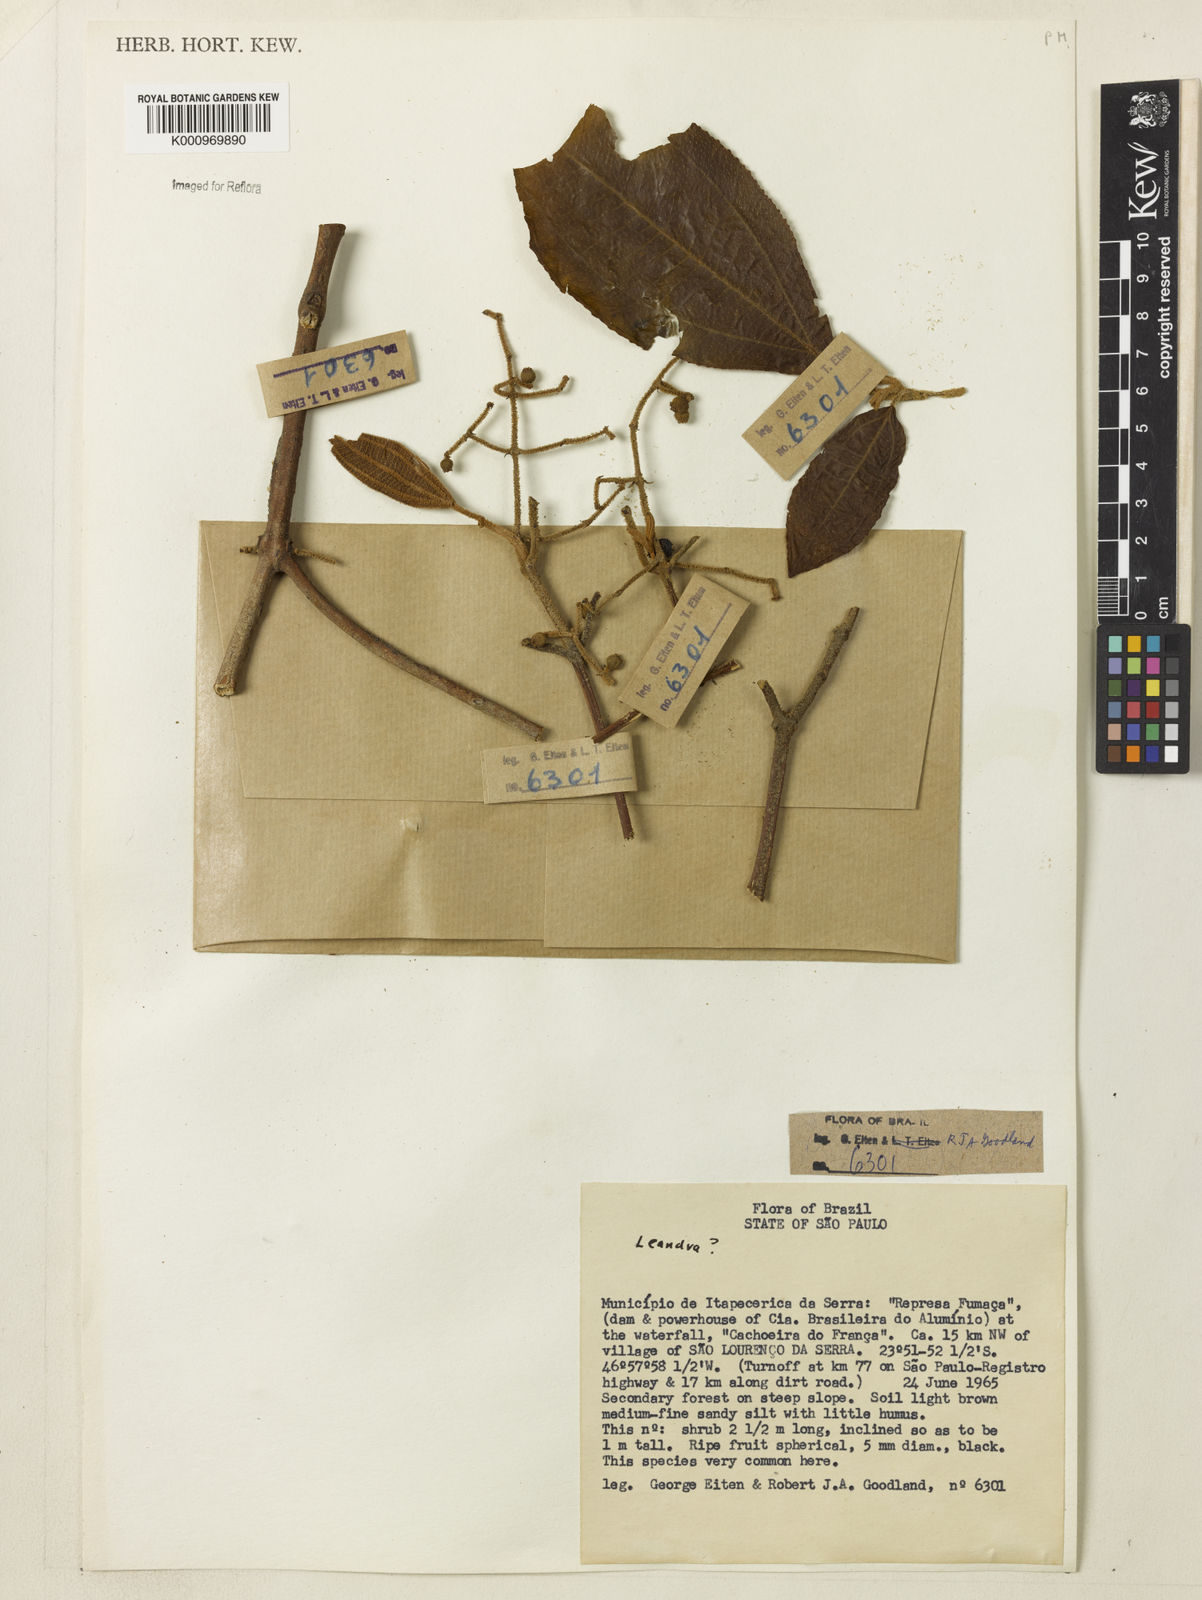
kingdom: Plantae
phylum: Tracheophyta
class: Magnoliopsida
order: Myrtales
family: Melastomataceae
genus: Miconia
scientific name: Miconia
